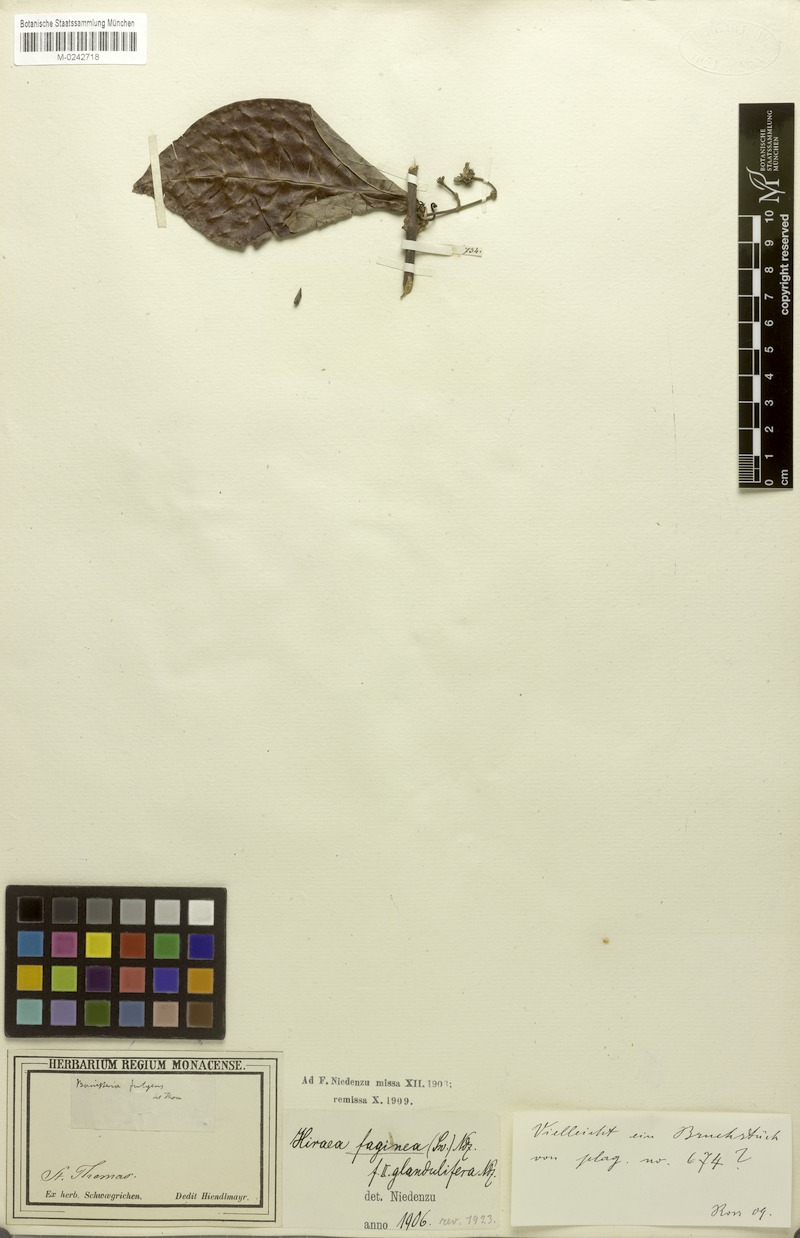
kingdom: Plantae
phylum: Tracheophyta
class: Magnoliopsida
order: Malpighiales
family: Malpighiaceae
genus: Hiraea
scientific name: Hiraea faginea
